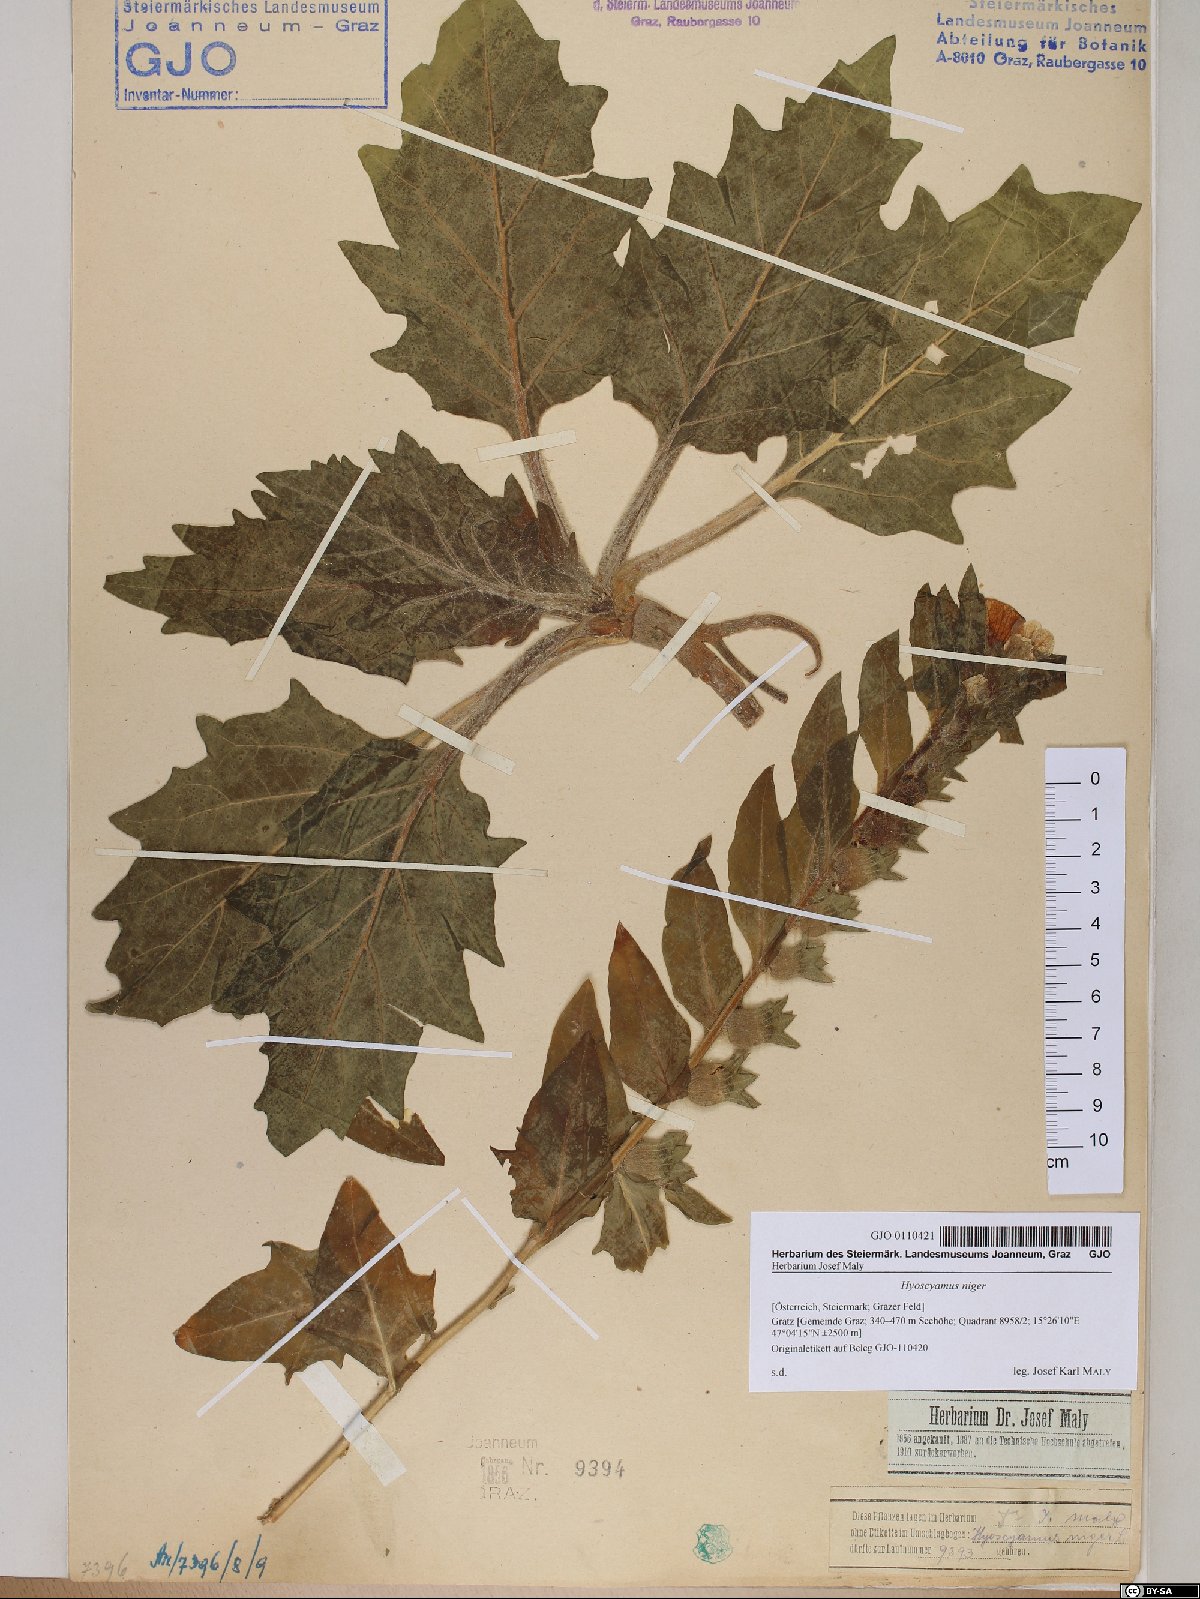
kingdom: Plantae
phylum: Tracheophyta
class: Magnoliopsida
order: Solanales
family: Solanaceae
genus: Hyoscyamus
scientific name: Hyoscyamus niger
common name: Henbane
